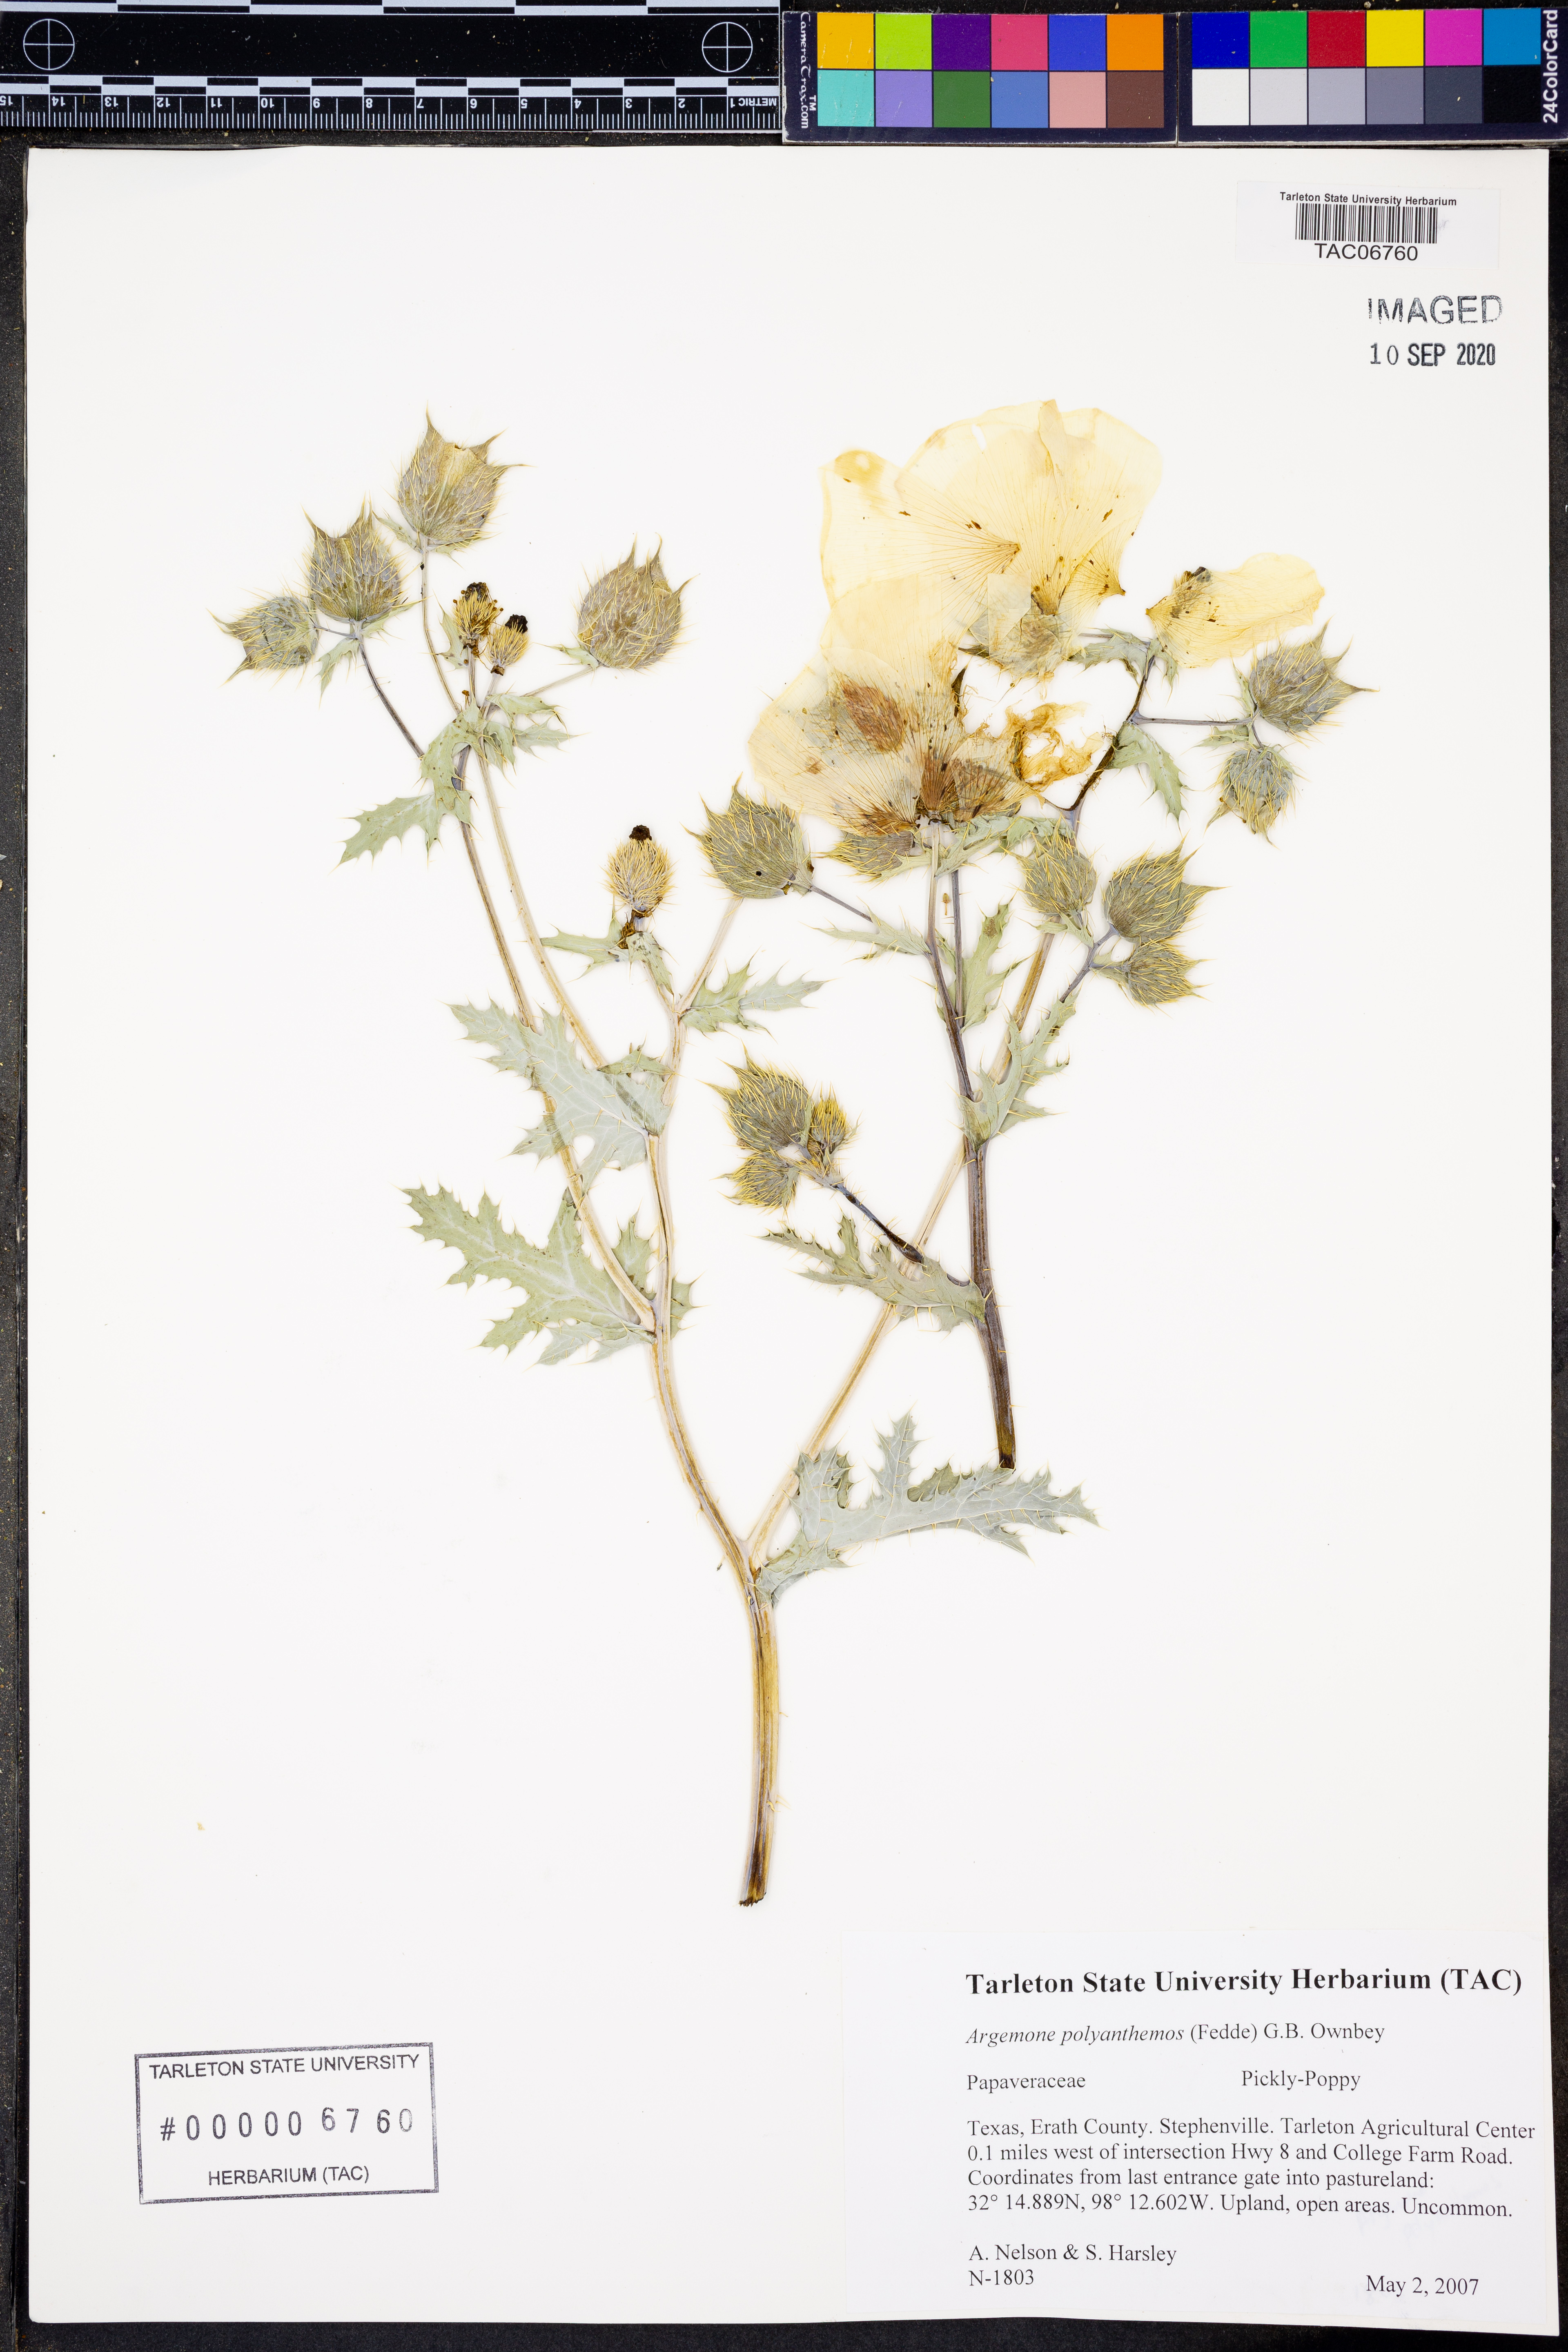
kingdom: Plantae
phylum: Tracheophyta
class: Magnoliopsida
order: Ranunculales
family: Papaveraceae
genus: Argemone
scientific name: Argemone polyanthemos
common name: Plains prickly-poppy
